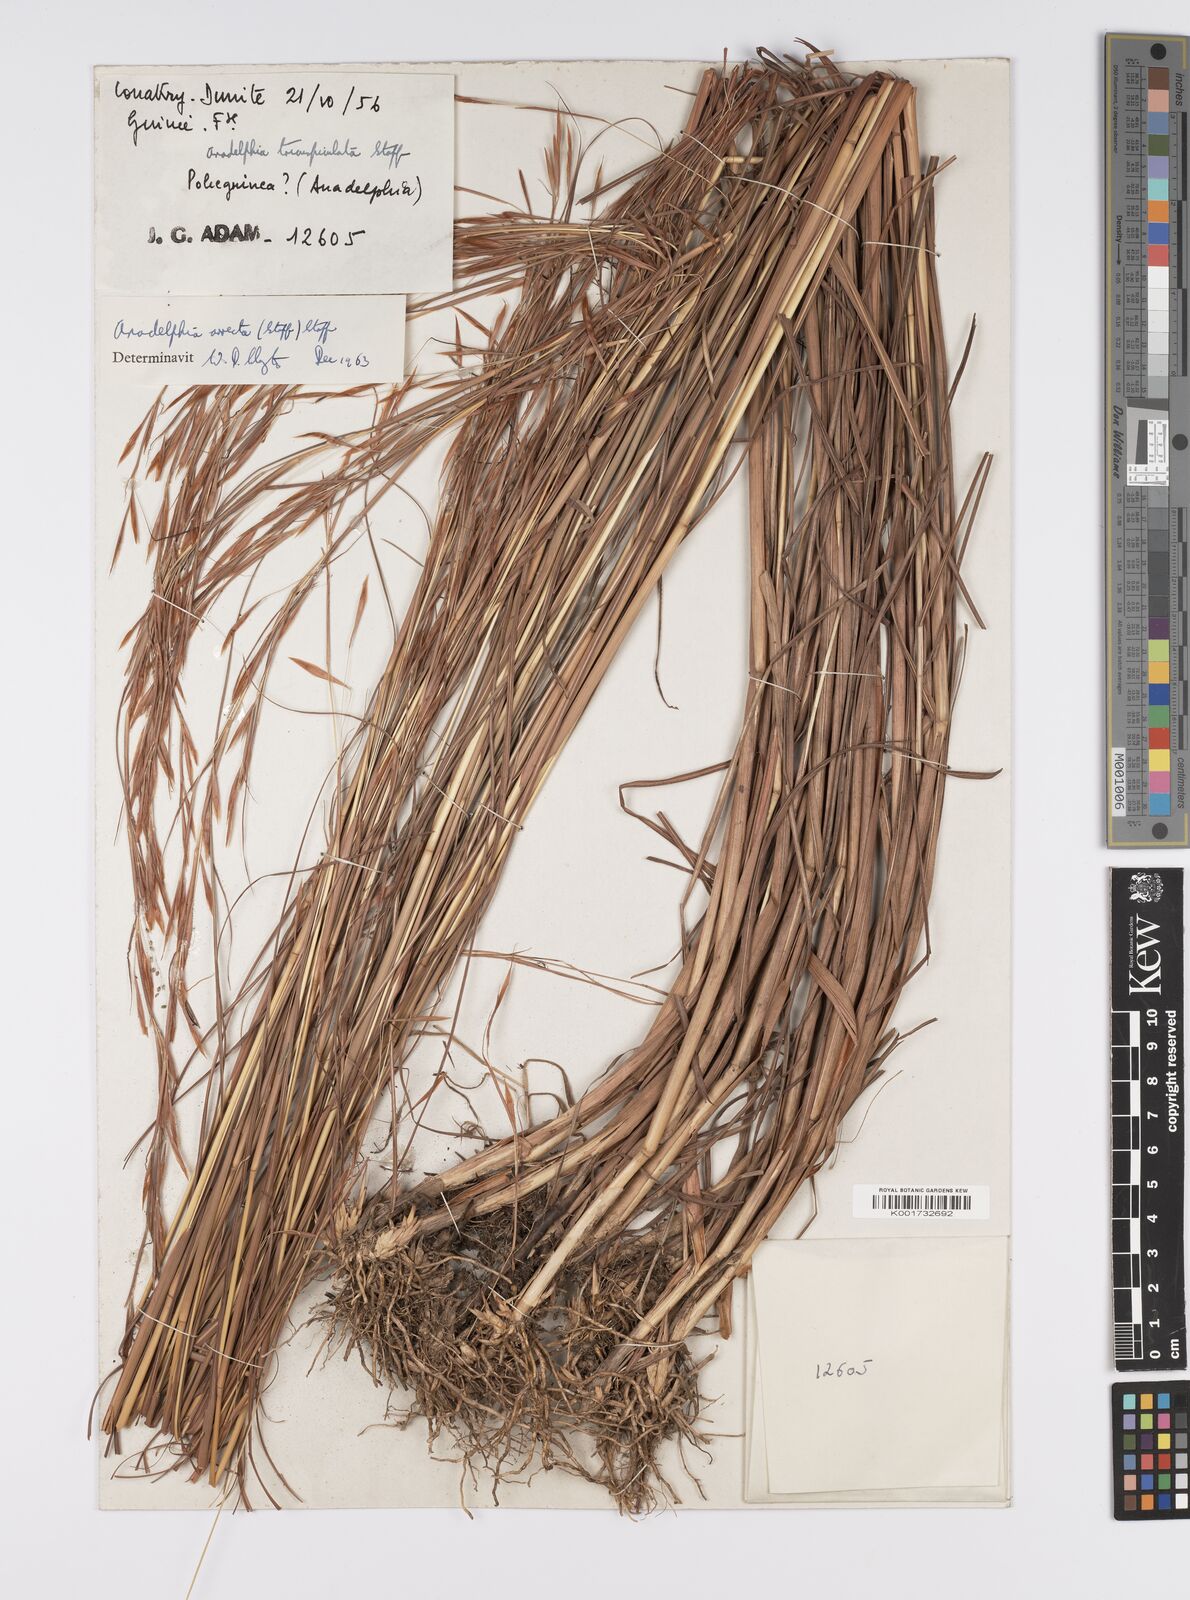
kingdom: Plantae
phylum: Tracheophyta
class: Liliopsida
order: Poales
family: Poaceae
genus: Anadelphia
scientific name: Anadelphia afzeliana
